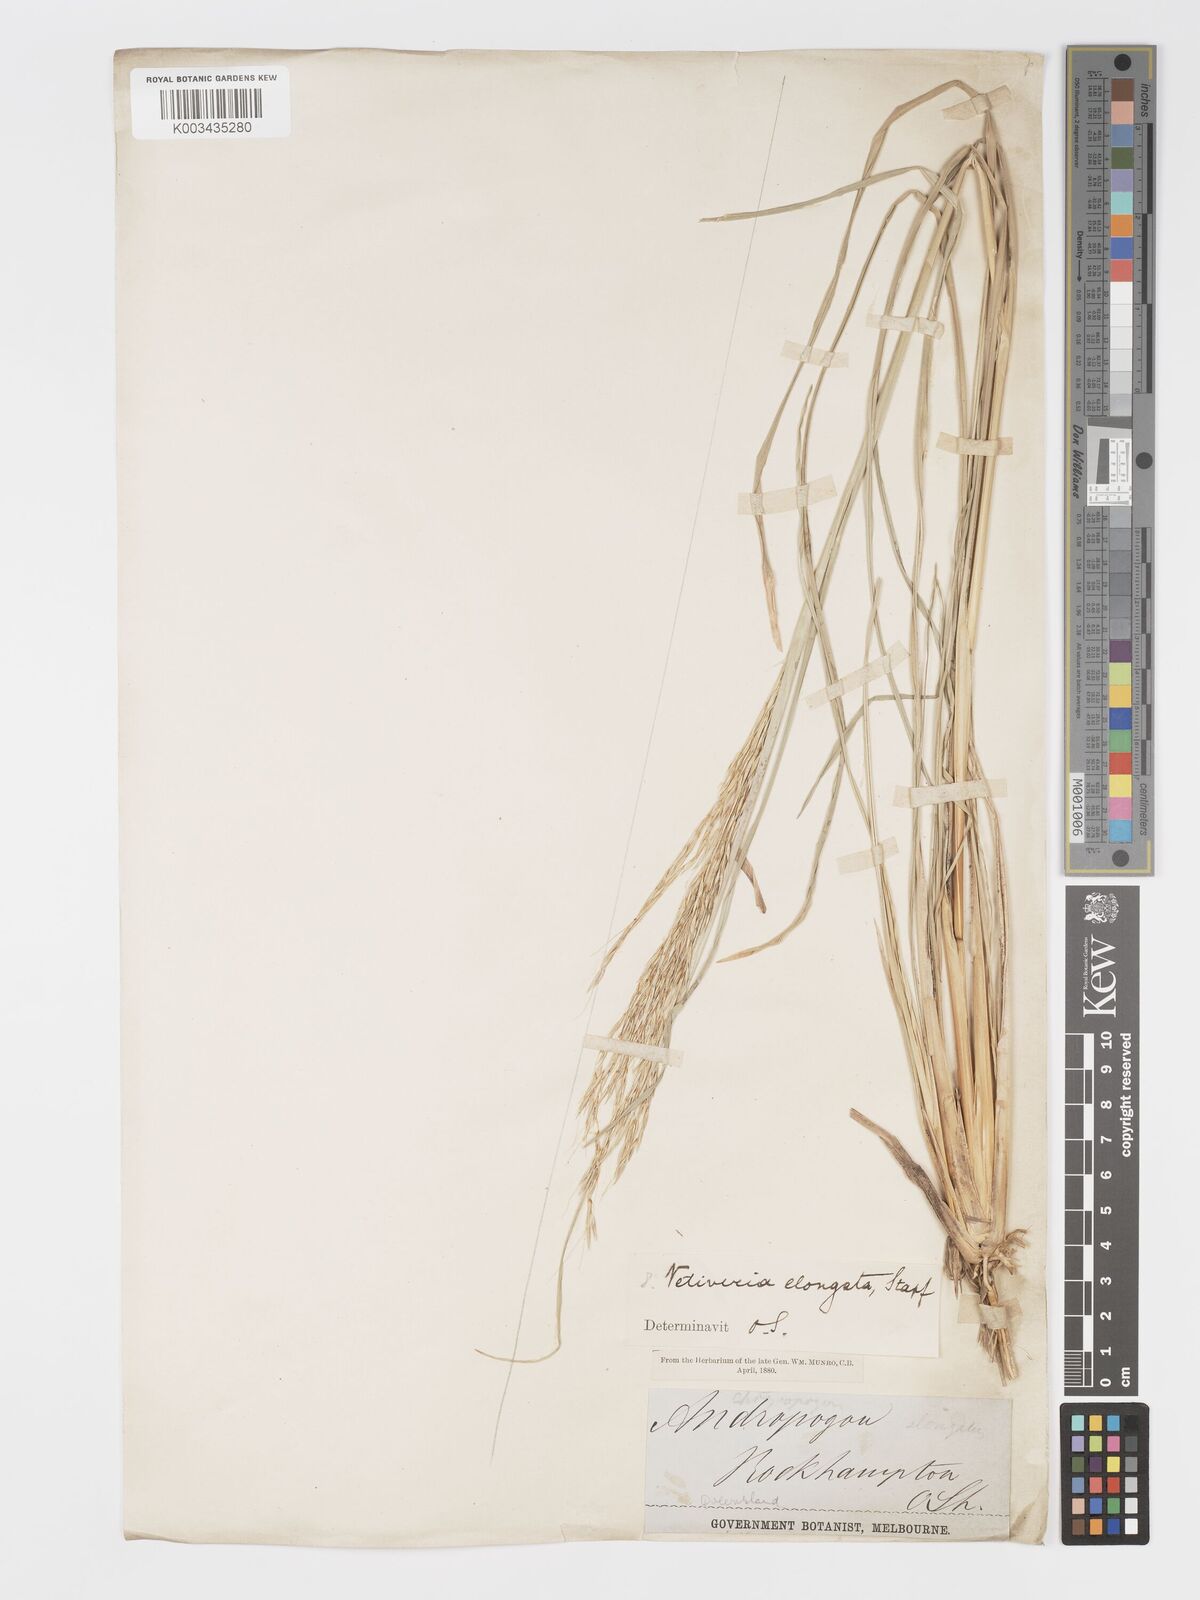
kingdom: Plantae
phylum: Tracheophyta
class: Liliopsida
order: Poales
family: Poaceae
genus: Chrysopogon
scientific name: Chrysopogon filipes
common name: Australian vetiver
